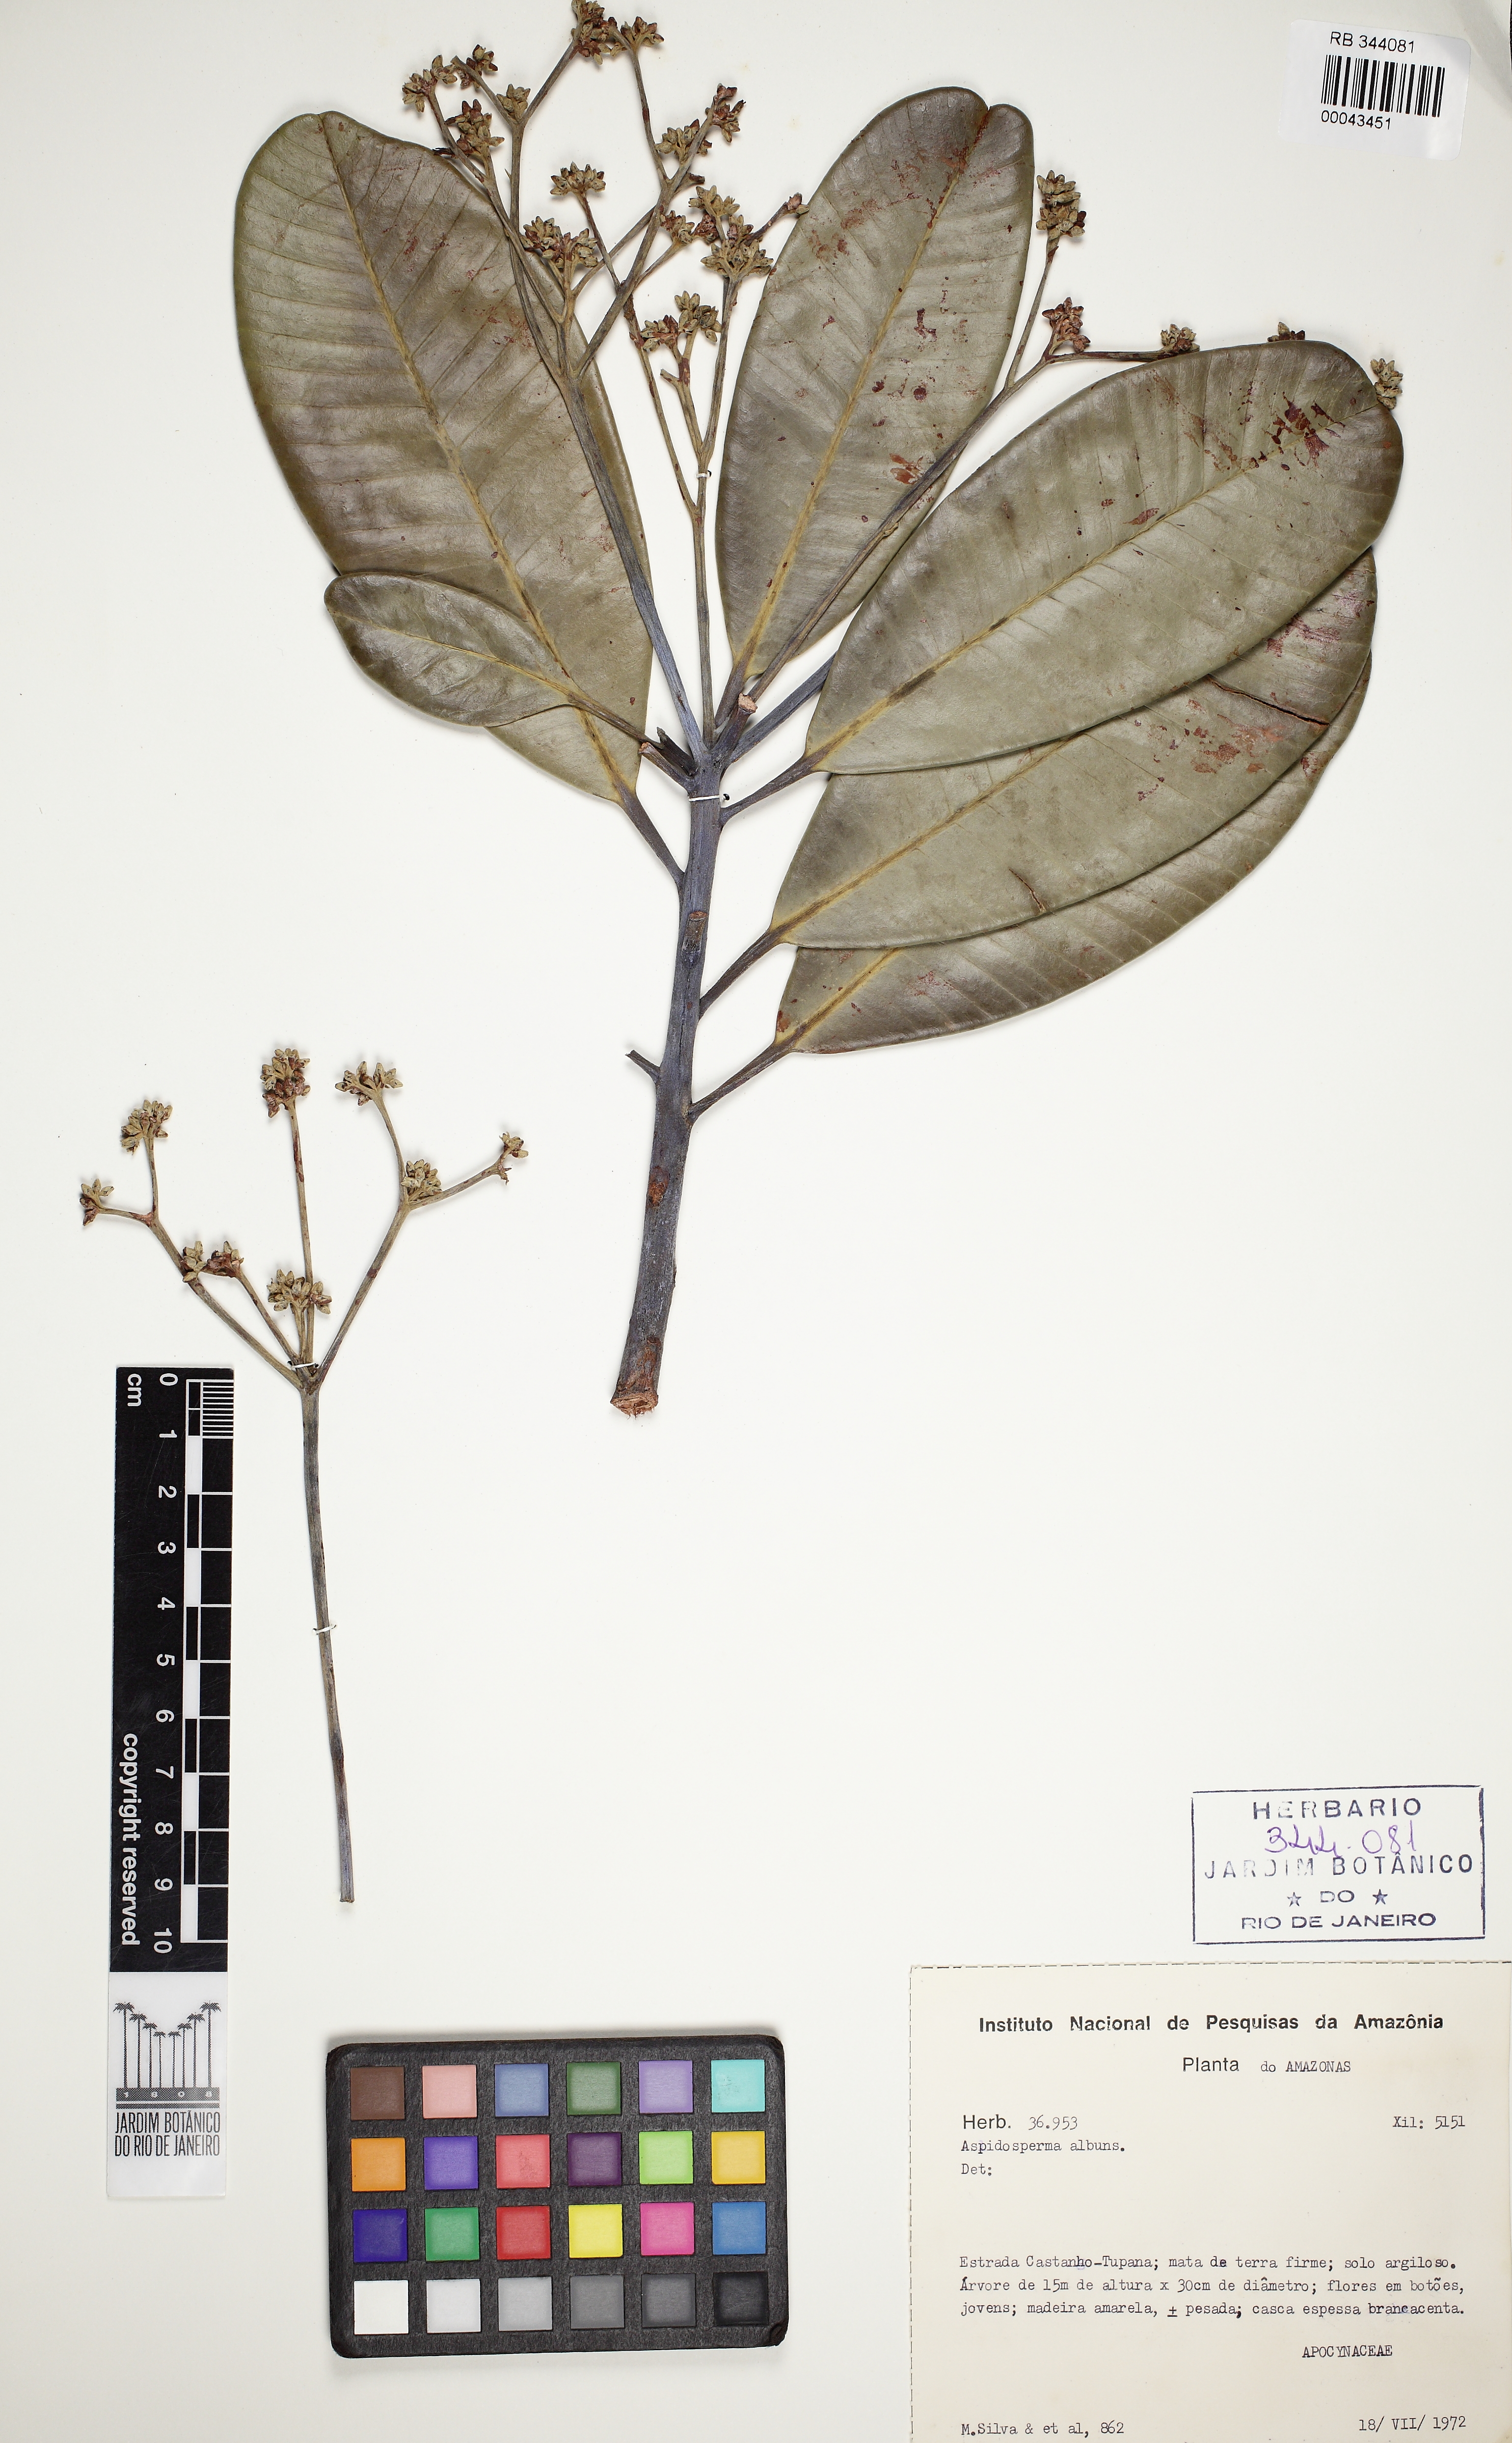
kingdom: Plantae
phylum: Tracheophyta
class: Magnoliopsida
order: Gentianales
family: Apocynaceae
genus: Aspidosperma
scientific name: Aspidosperma album
